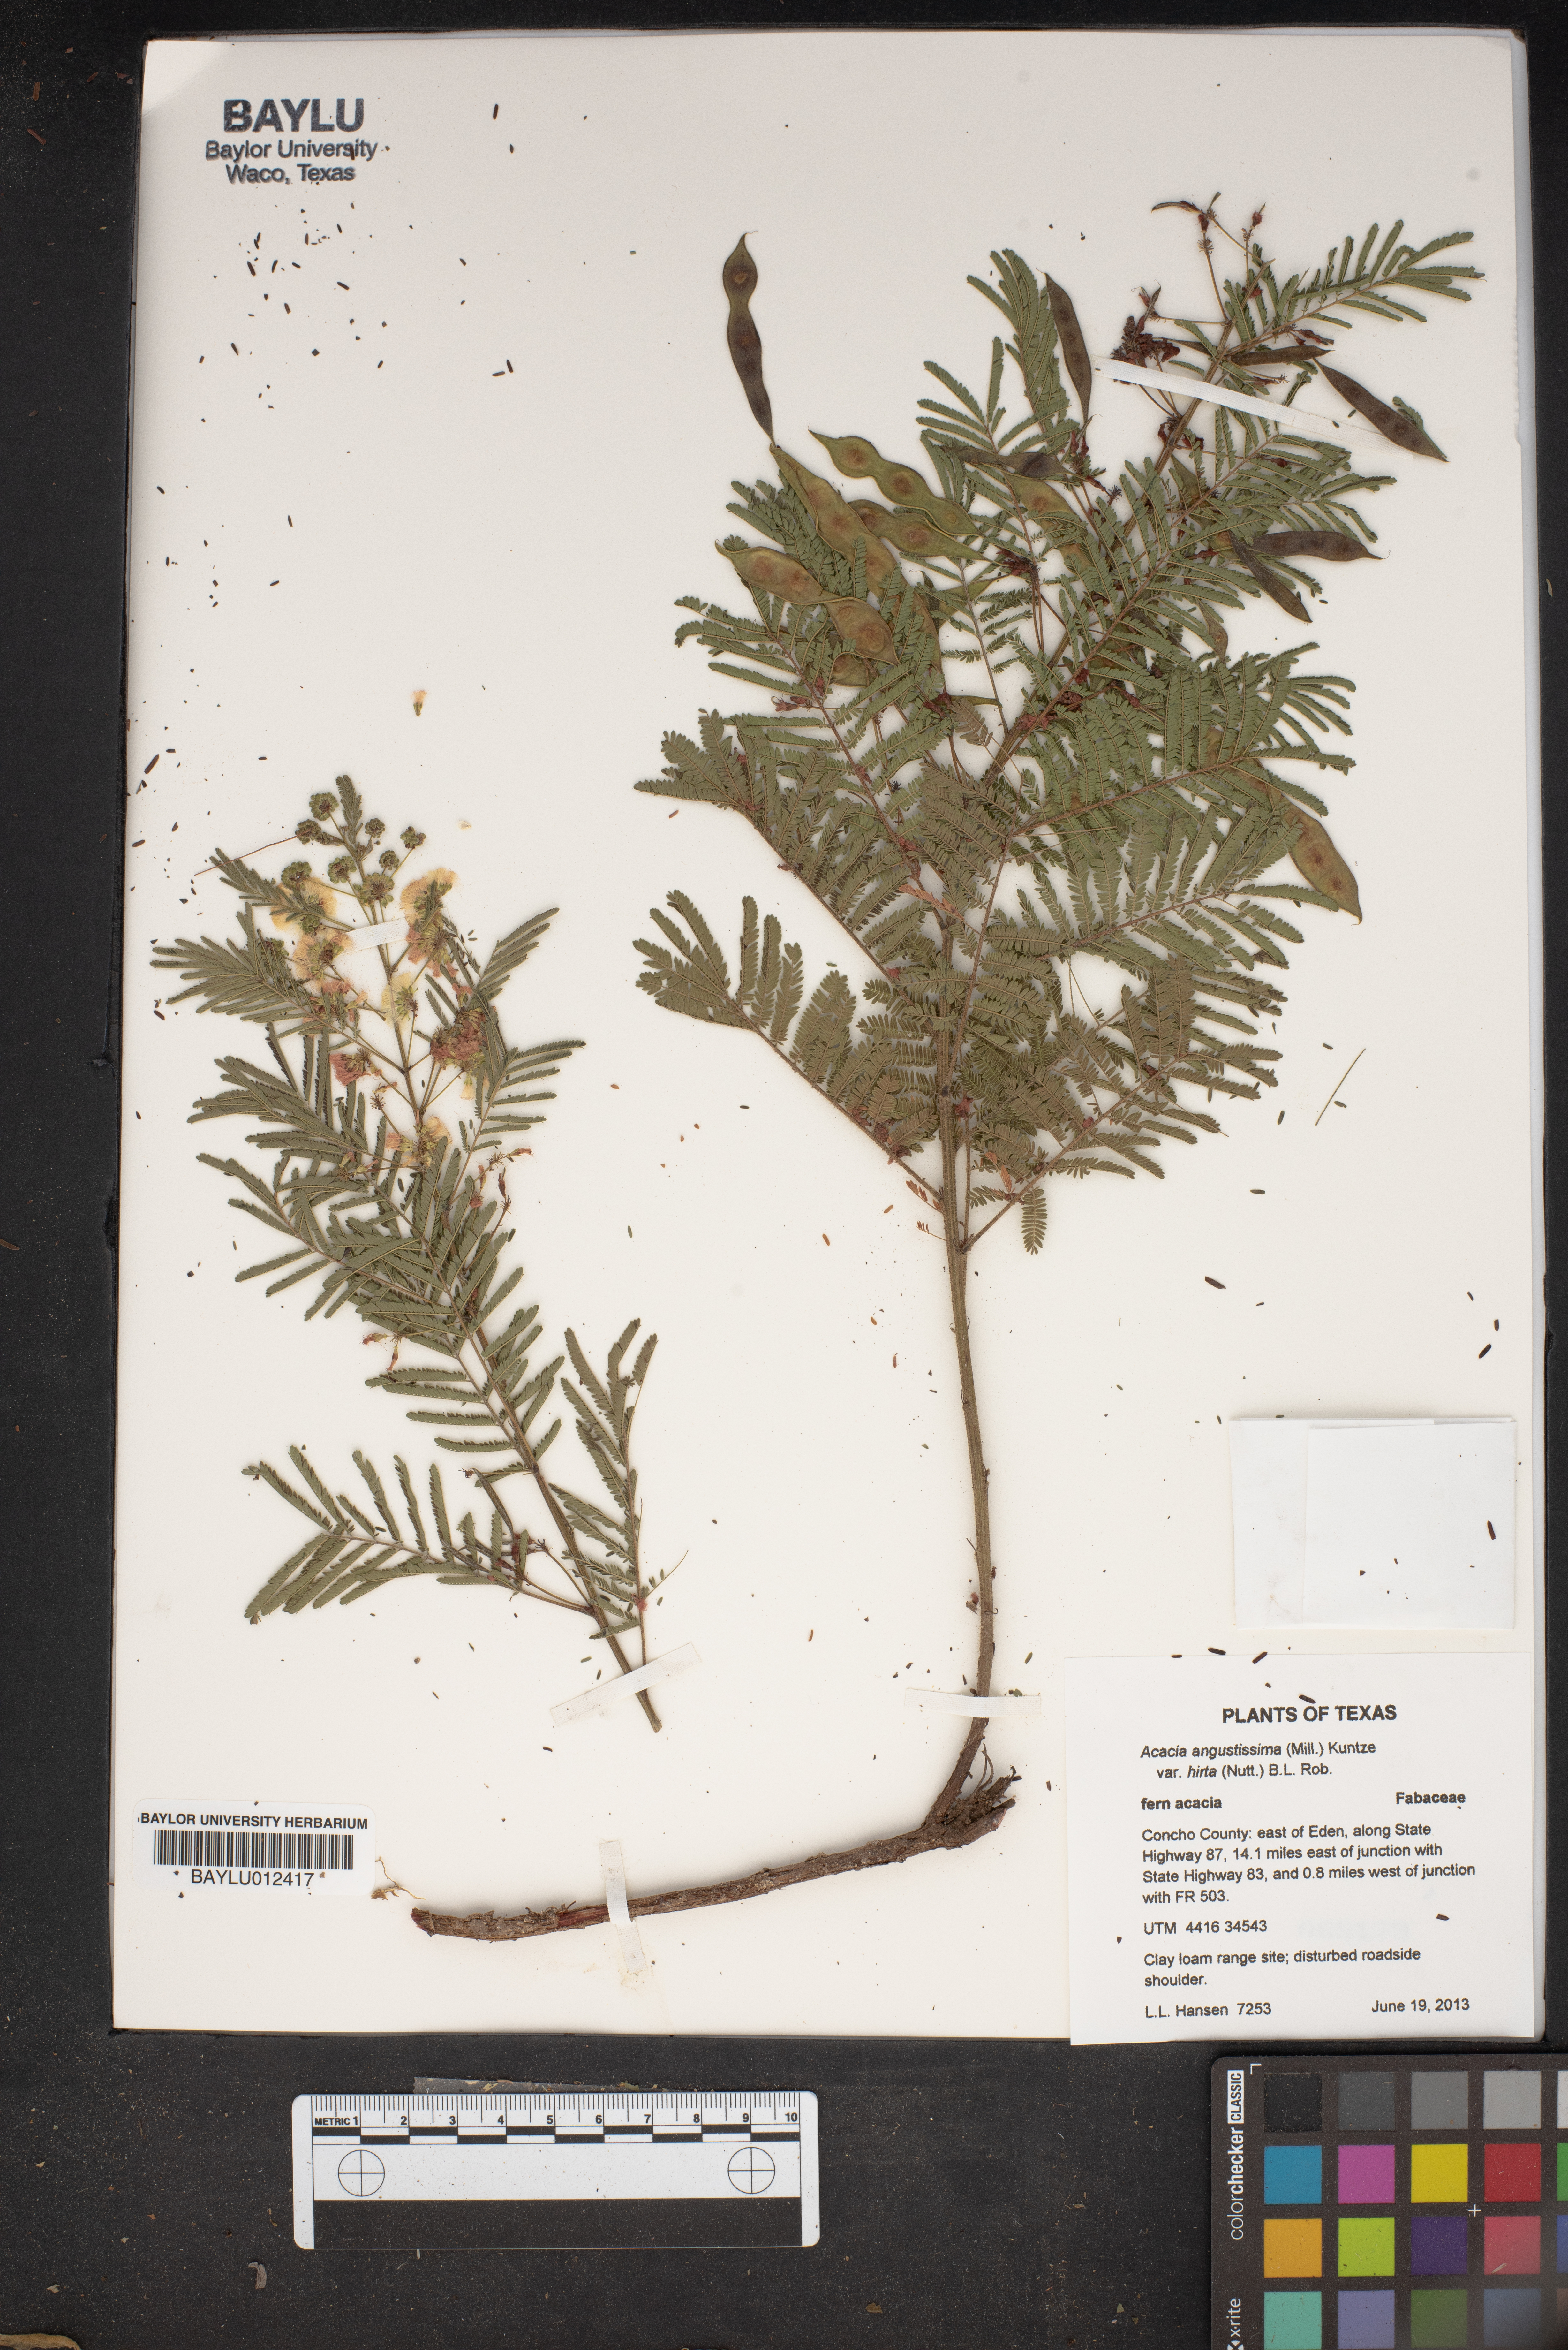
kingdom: Plantae
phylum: Tracheophyta
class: Magnoliopsida
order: Fabales
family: Fabaceae
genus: Acaciella
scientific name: Acaciella angustissima
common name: Prairie acacia
